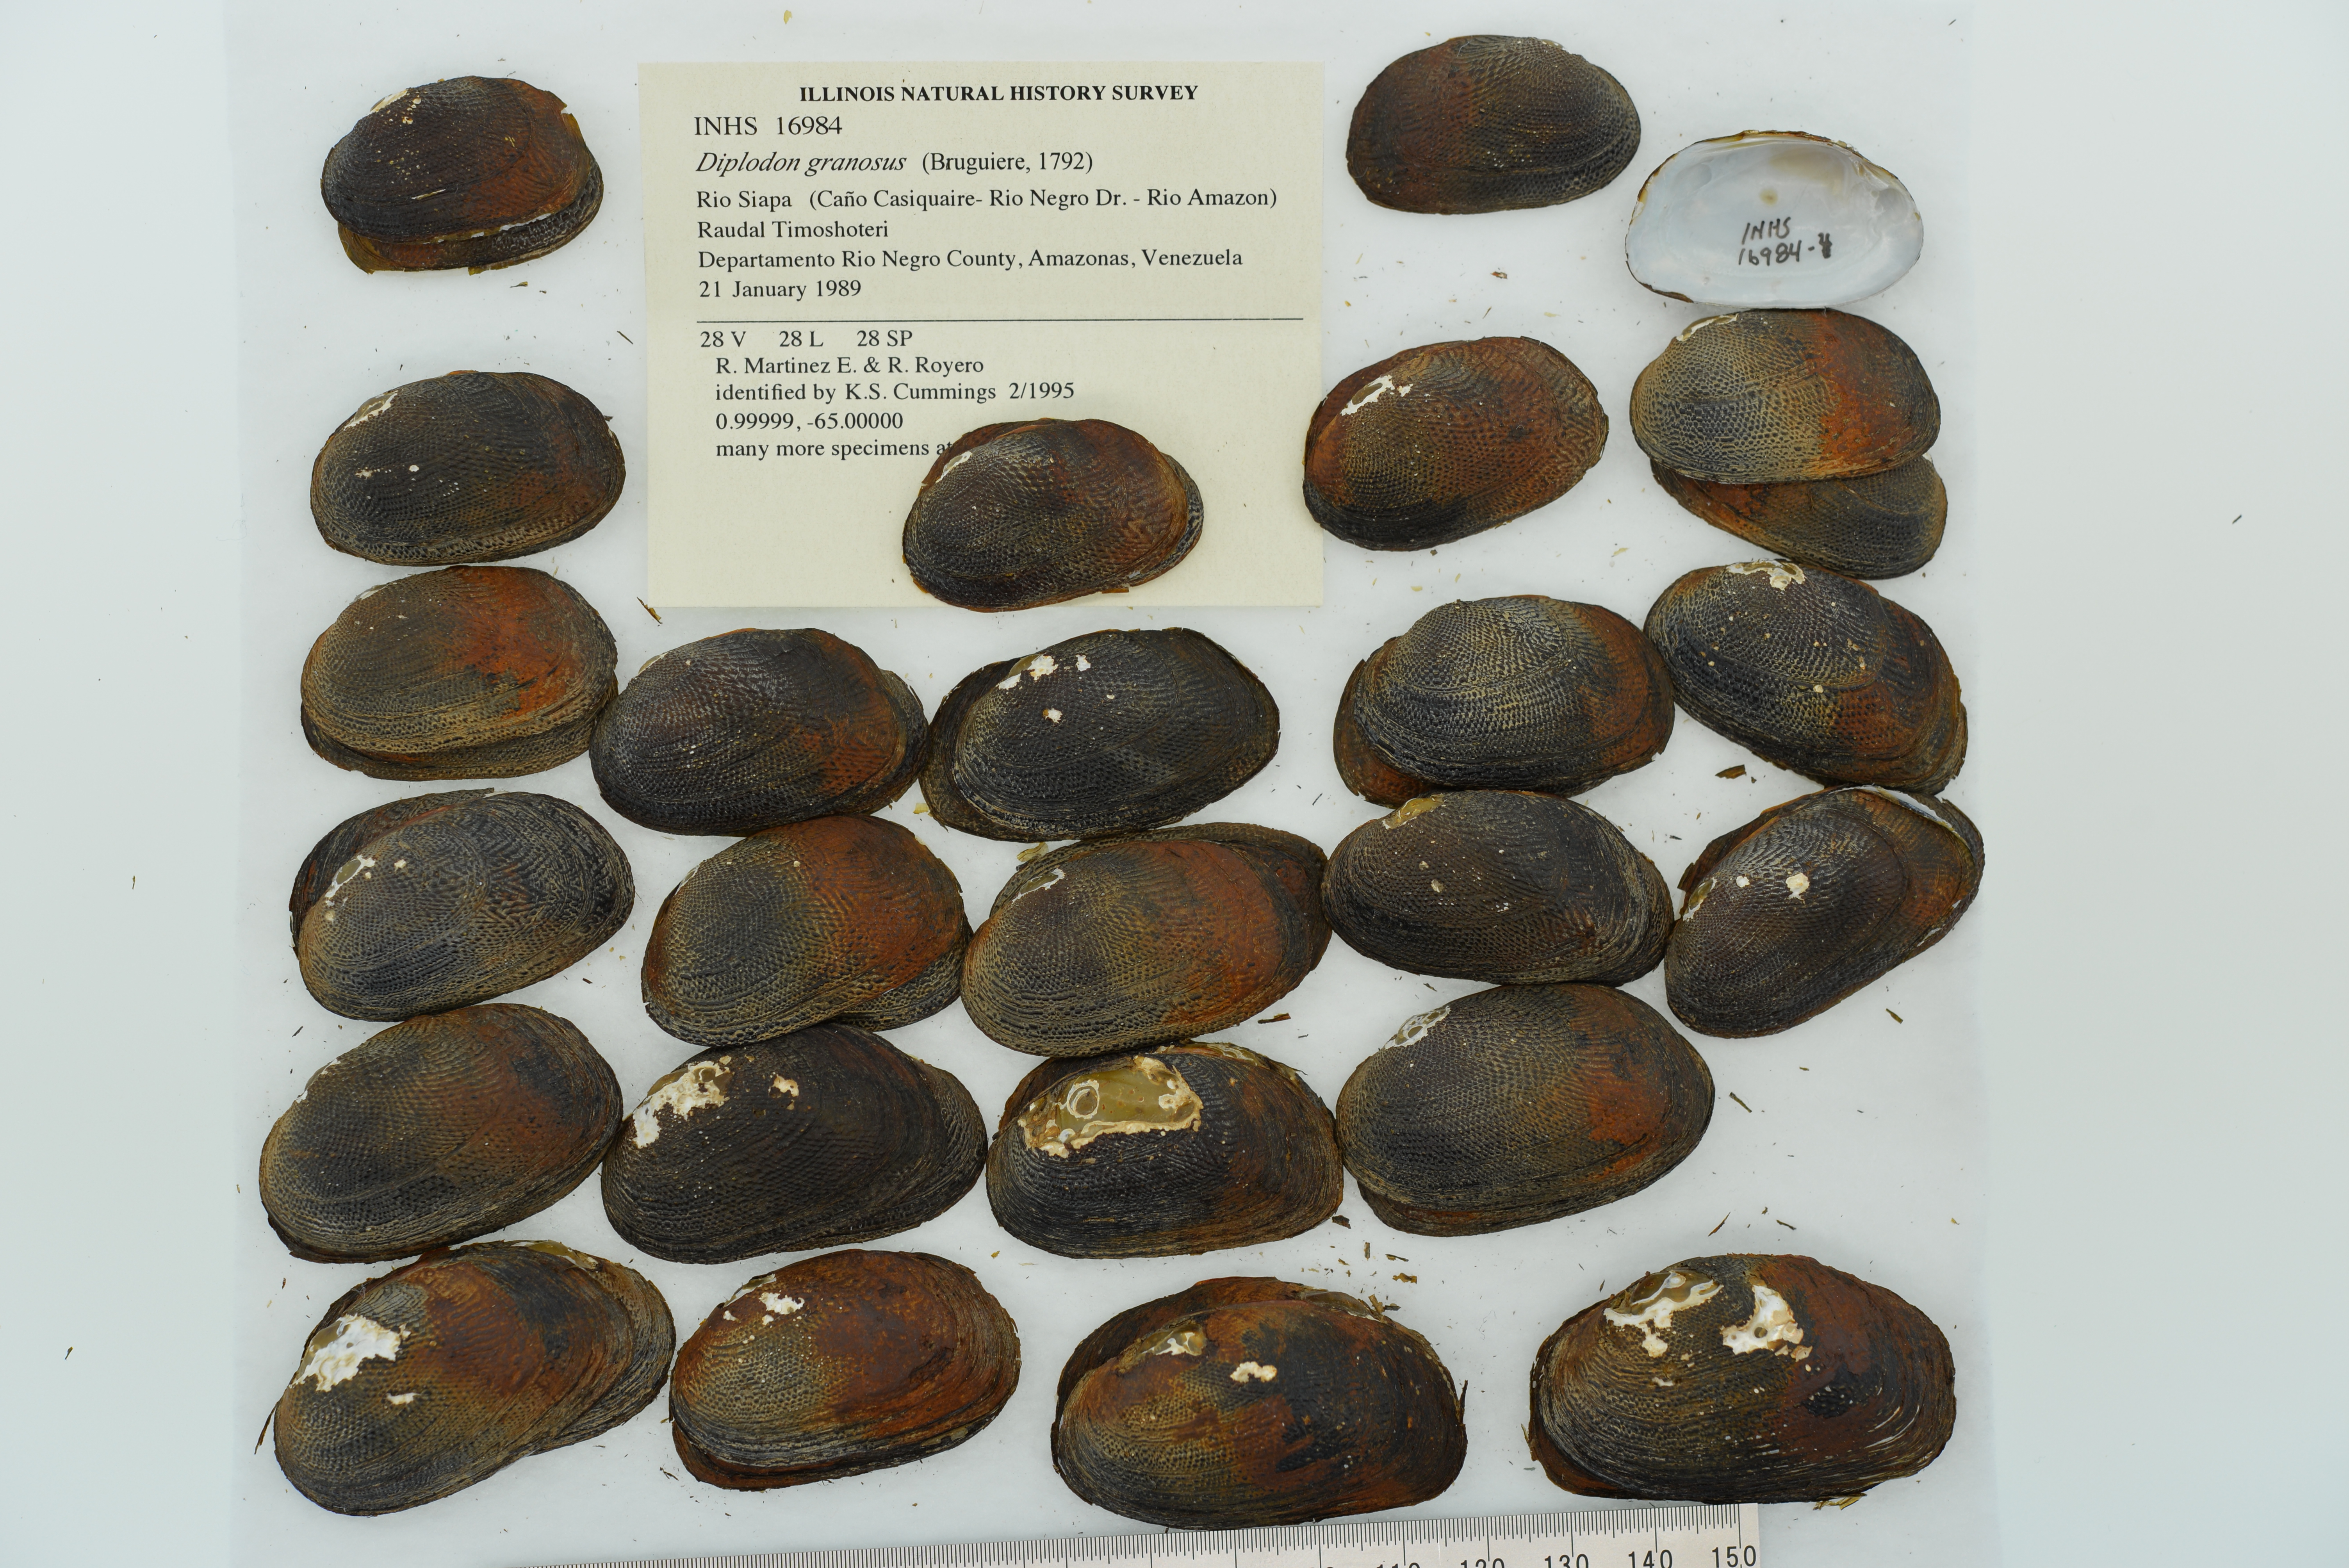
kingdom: Animalia
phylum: Mollusca
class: Bivalvia
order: Unionida
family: Hyriidae
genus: Diplodon
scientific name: Diplodon granosus
